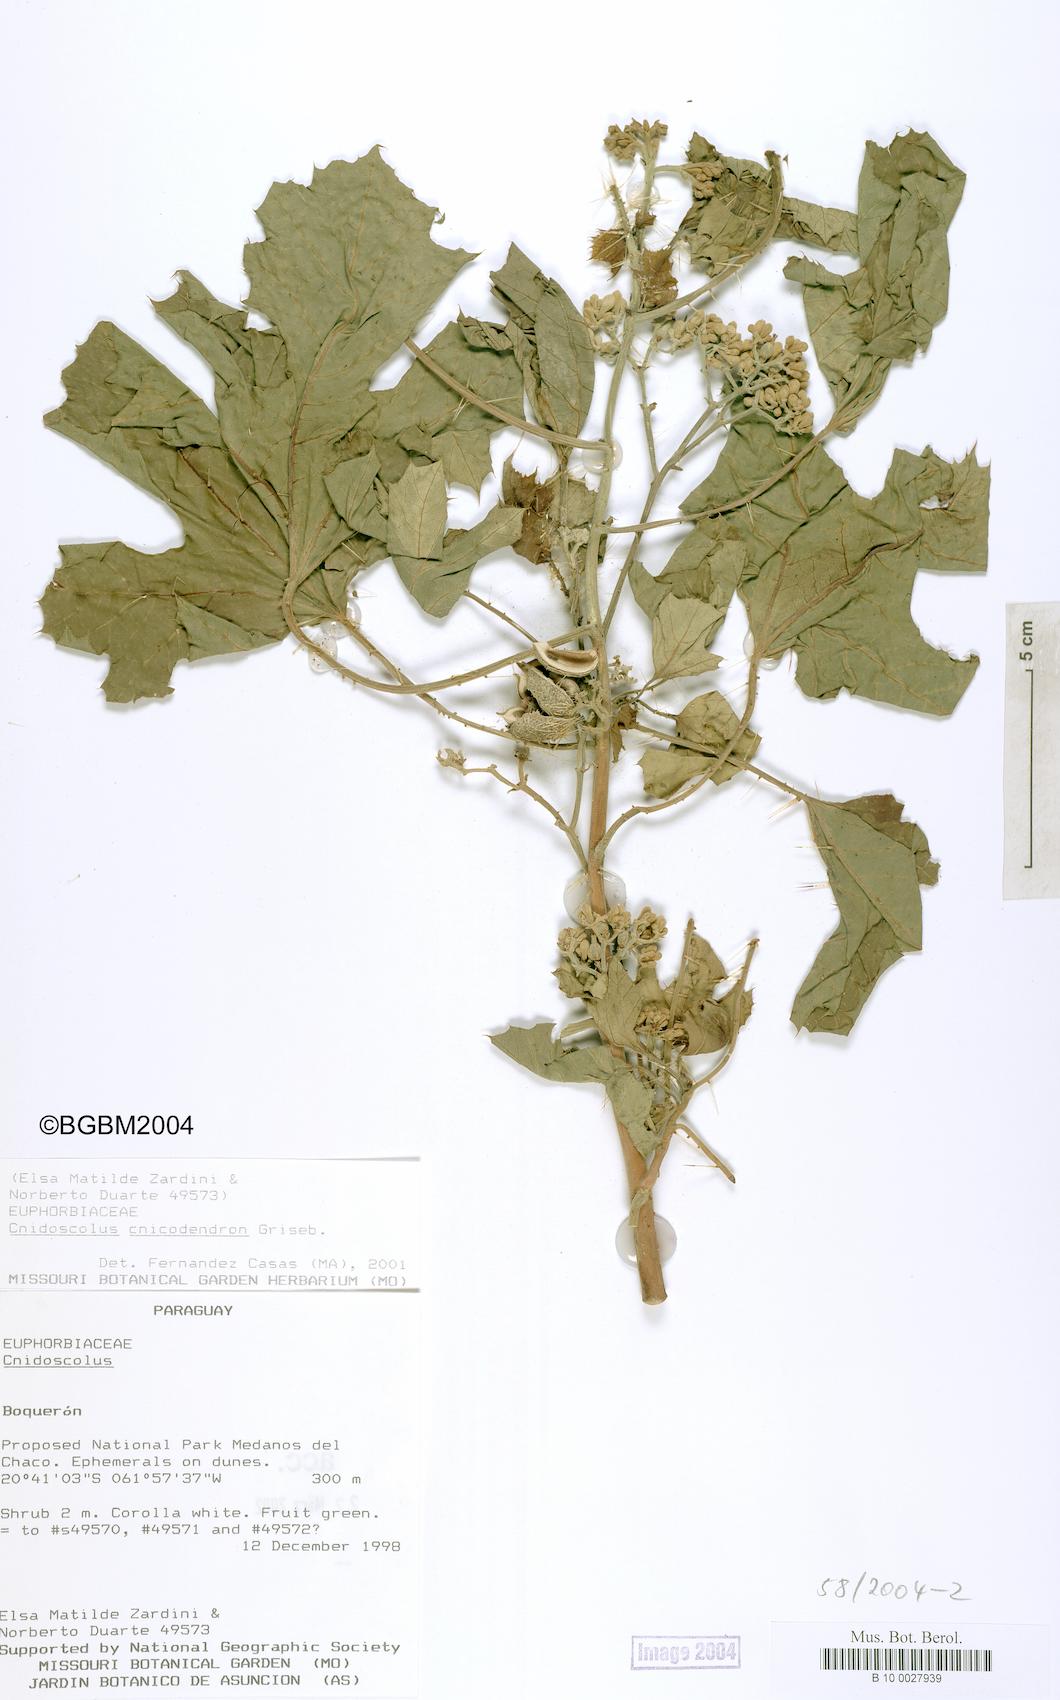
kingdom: Plantae
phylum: Tracheophyta
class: Magnoliopsida
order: Malpighiales
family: Euphorbiaceae
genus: Cnidoscolus
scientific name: Cnidoscolus
